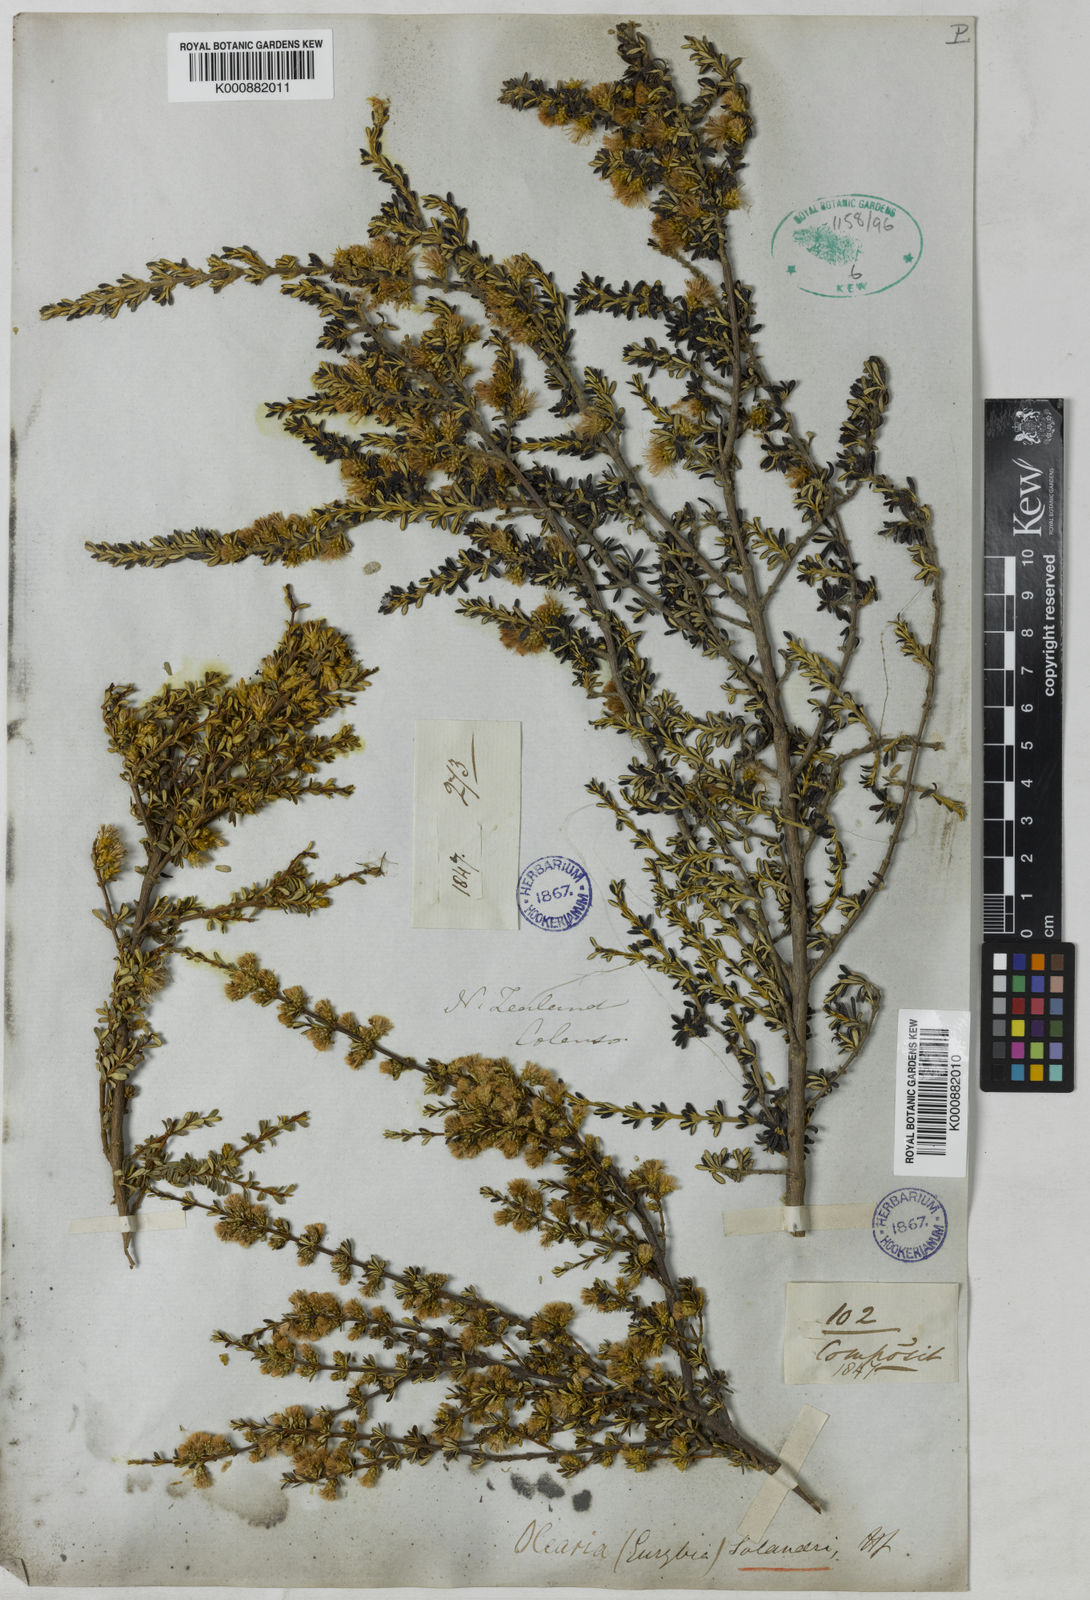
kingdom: Plantae
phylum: Tracheophyta
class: Magnoliopsida
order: Asterales
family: Asteraceae
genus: Olearia
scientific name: Olearia solandri
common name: Coastal daisybush
